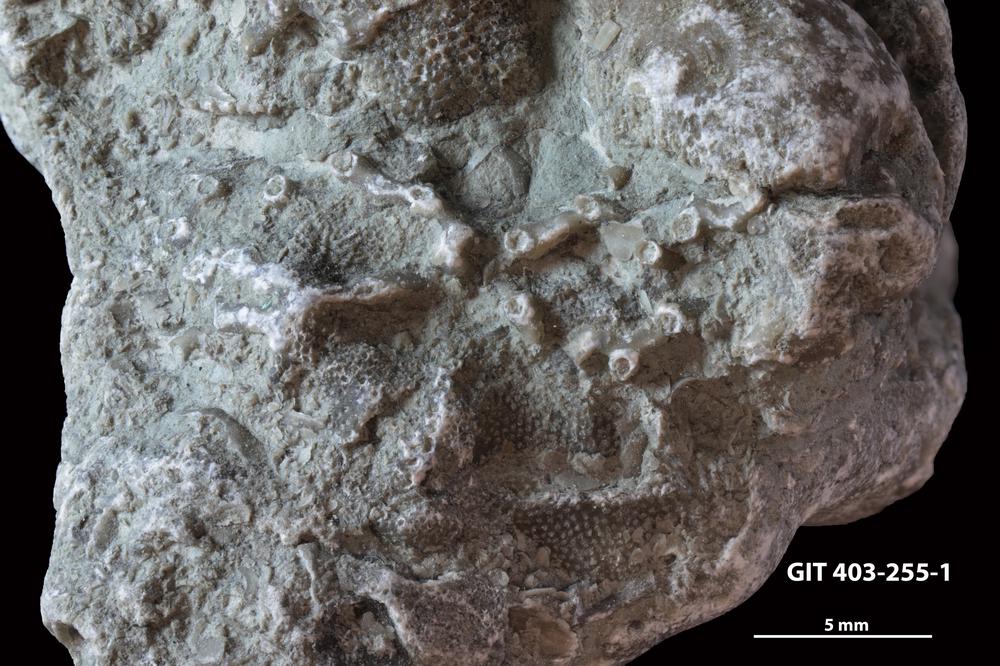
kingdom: Animalia
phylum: Cnidaria
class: Anthozoa
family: Auloporidae
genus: Aulopora
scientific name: Aulopora
